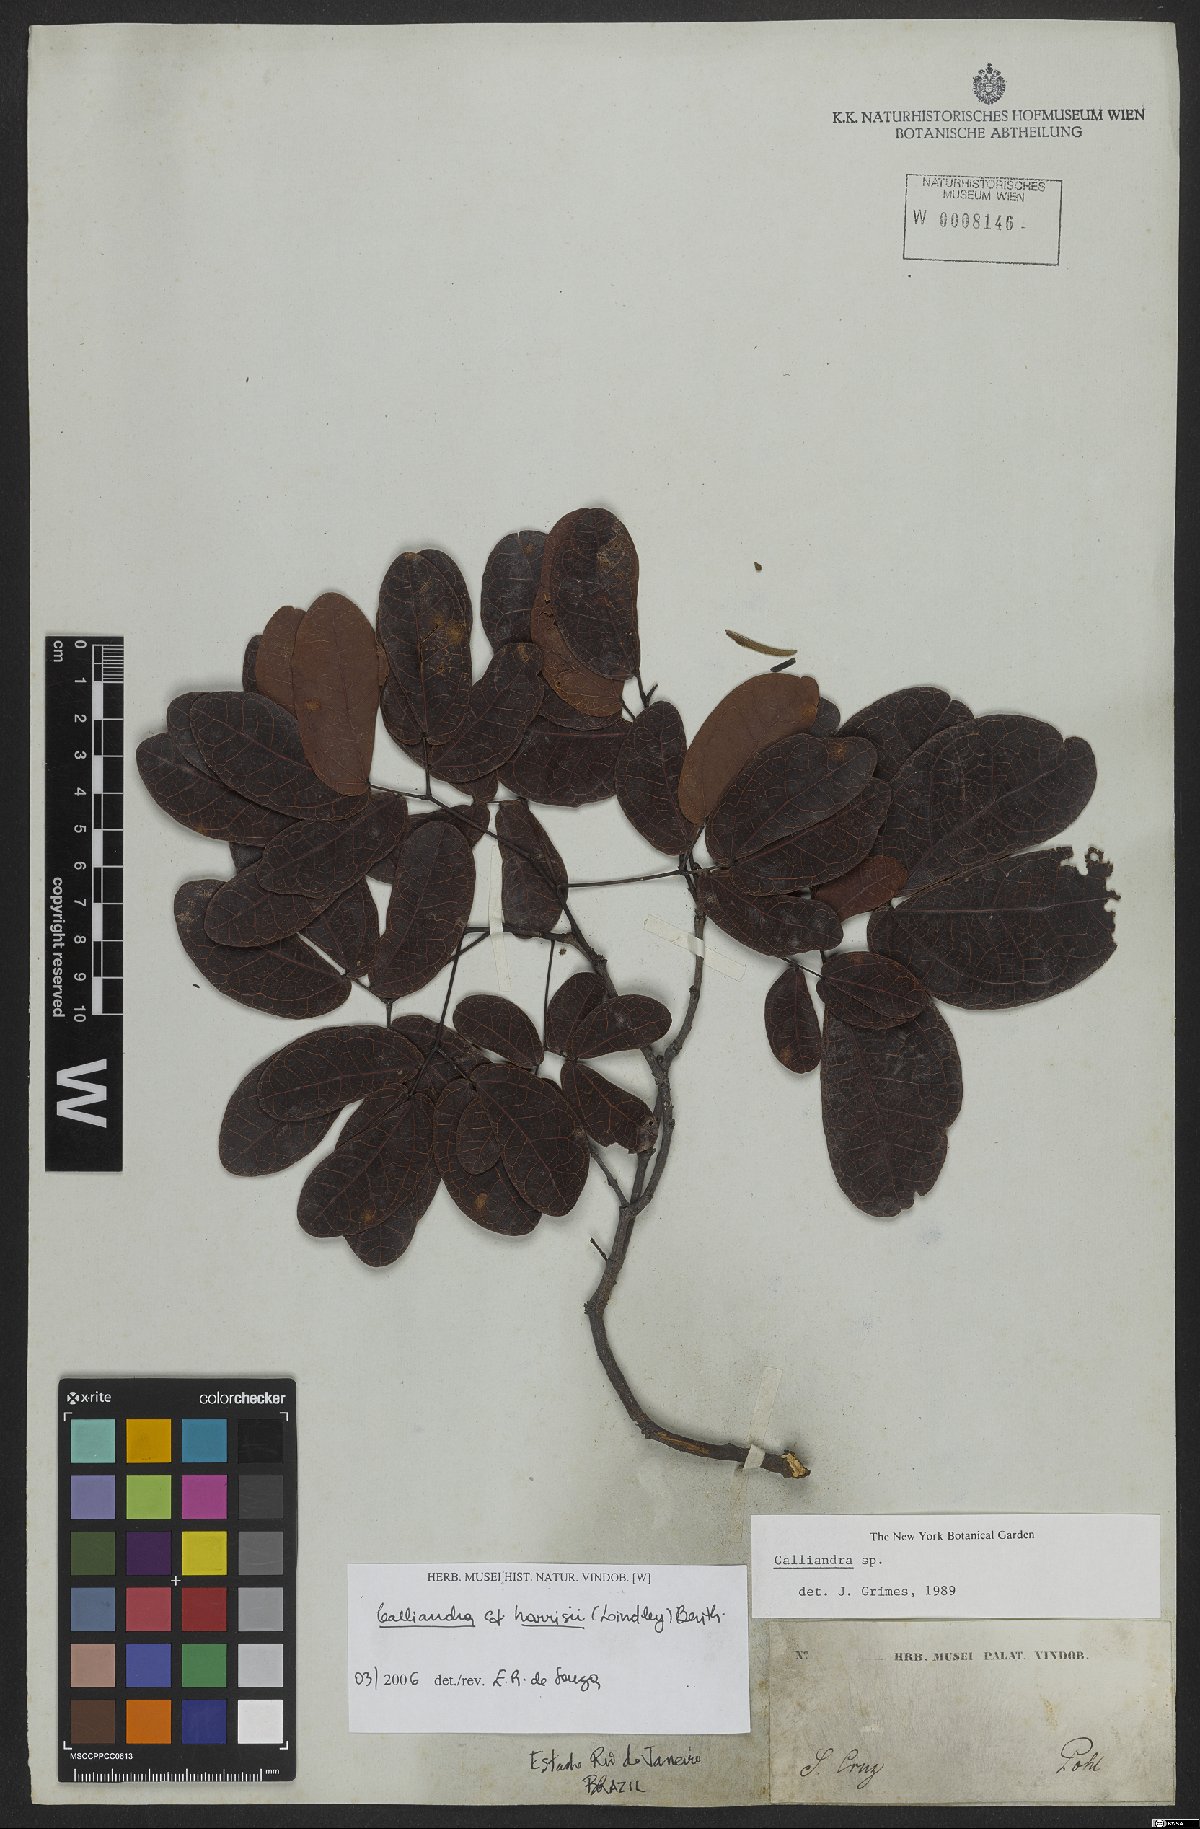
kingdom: Plantae
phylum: Tracheophyta
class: Magnoliopsida
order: Fabales
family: Fabaceae
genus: Calliandra
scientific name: Calliandra depauperata
